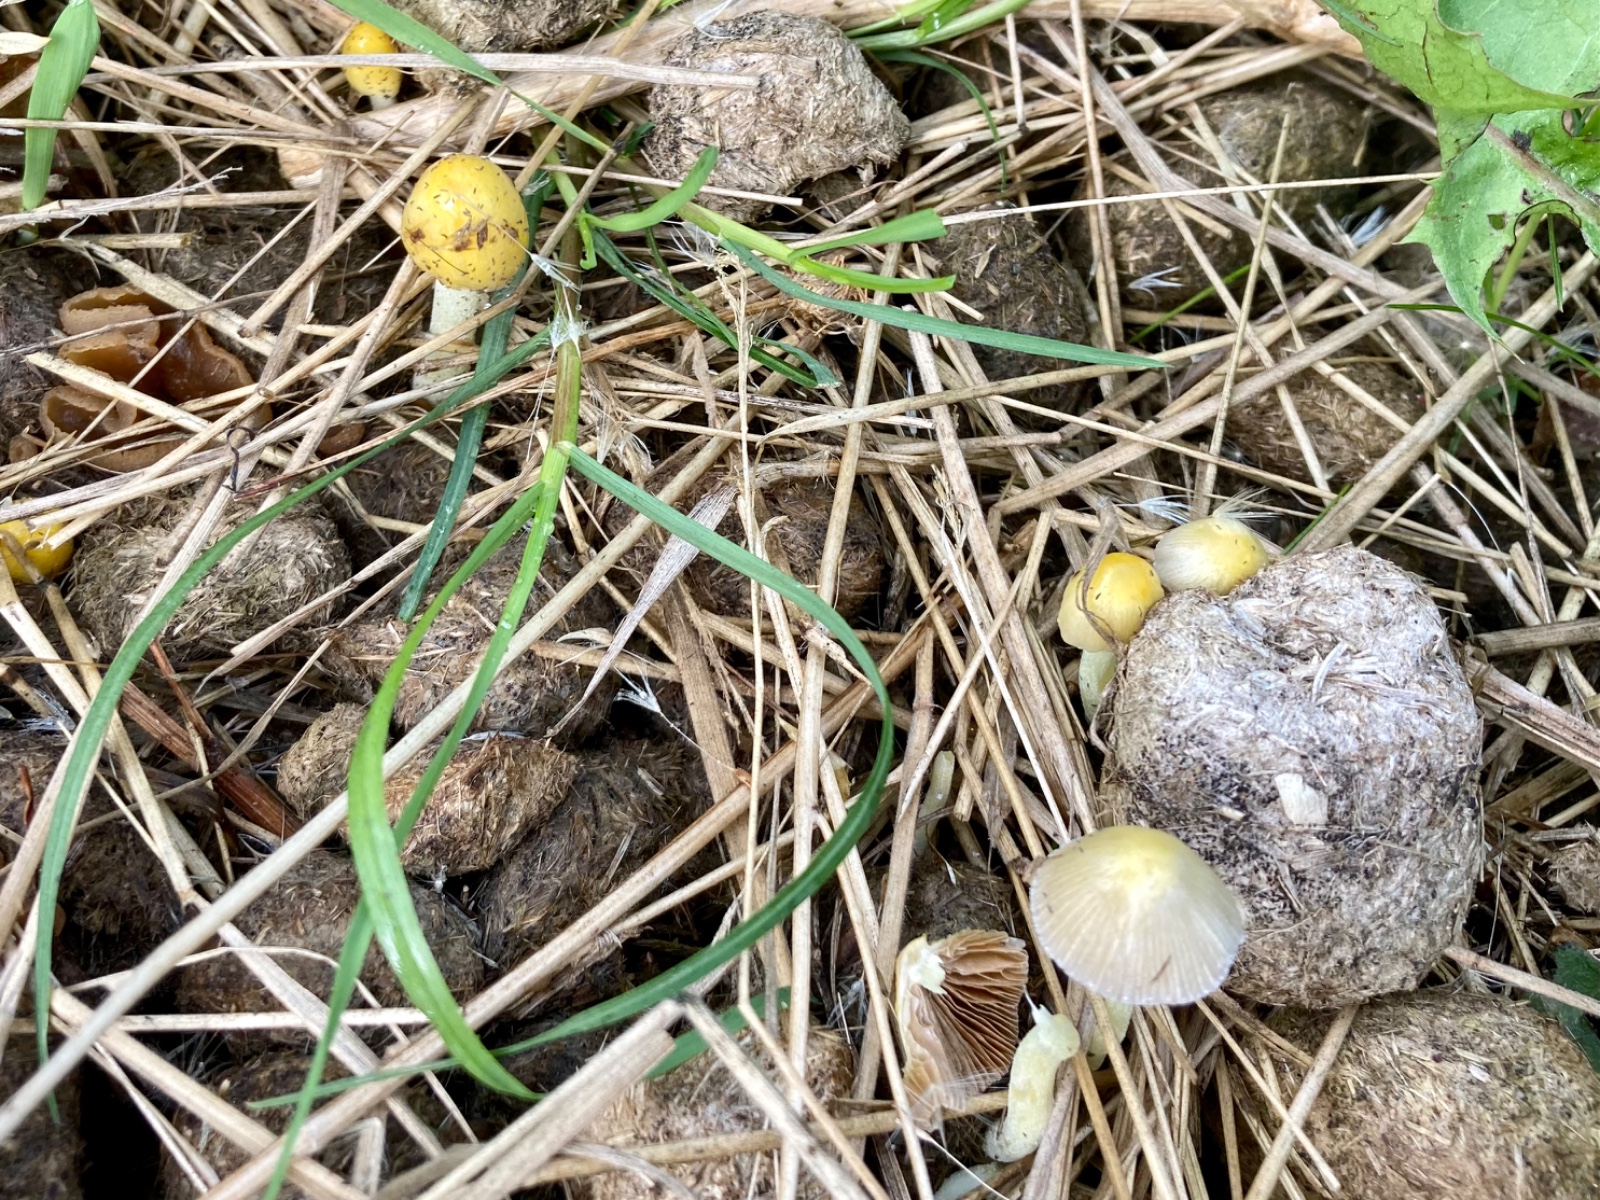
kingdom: Fungi
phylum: Basidiomycota
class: Agaricomycetes
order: Agaricales
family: Bolbitiaceae
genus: Bolbitius
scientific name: Bolbitius titubans
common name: almindelig gulhat
